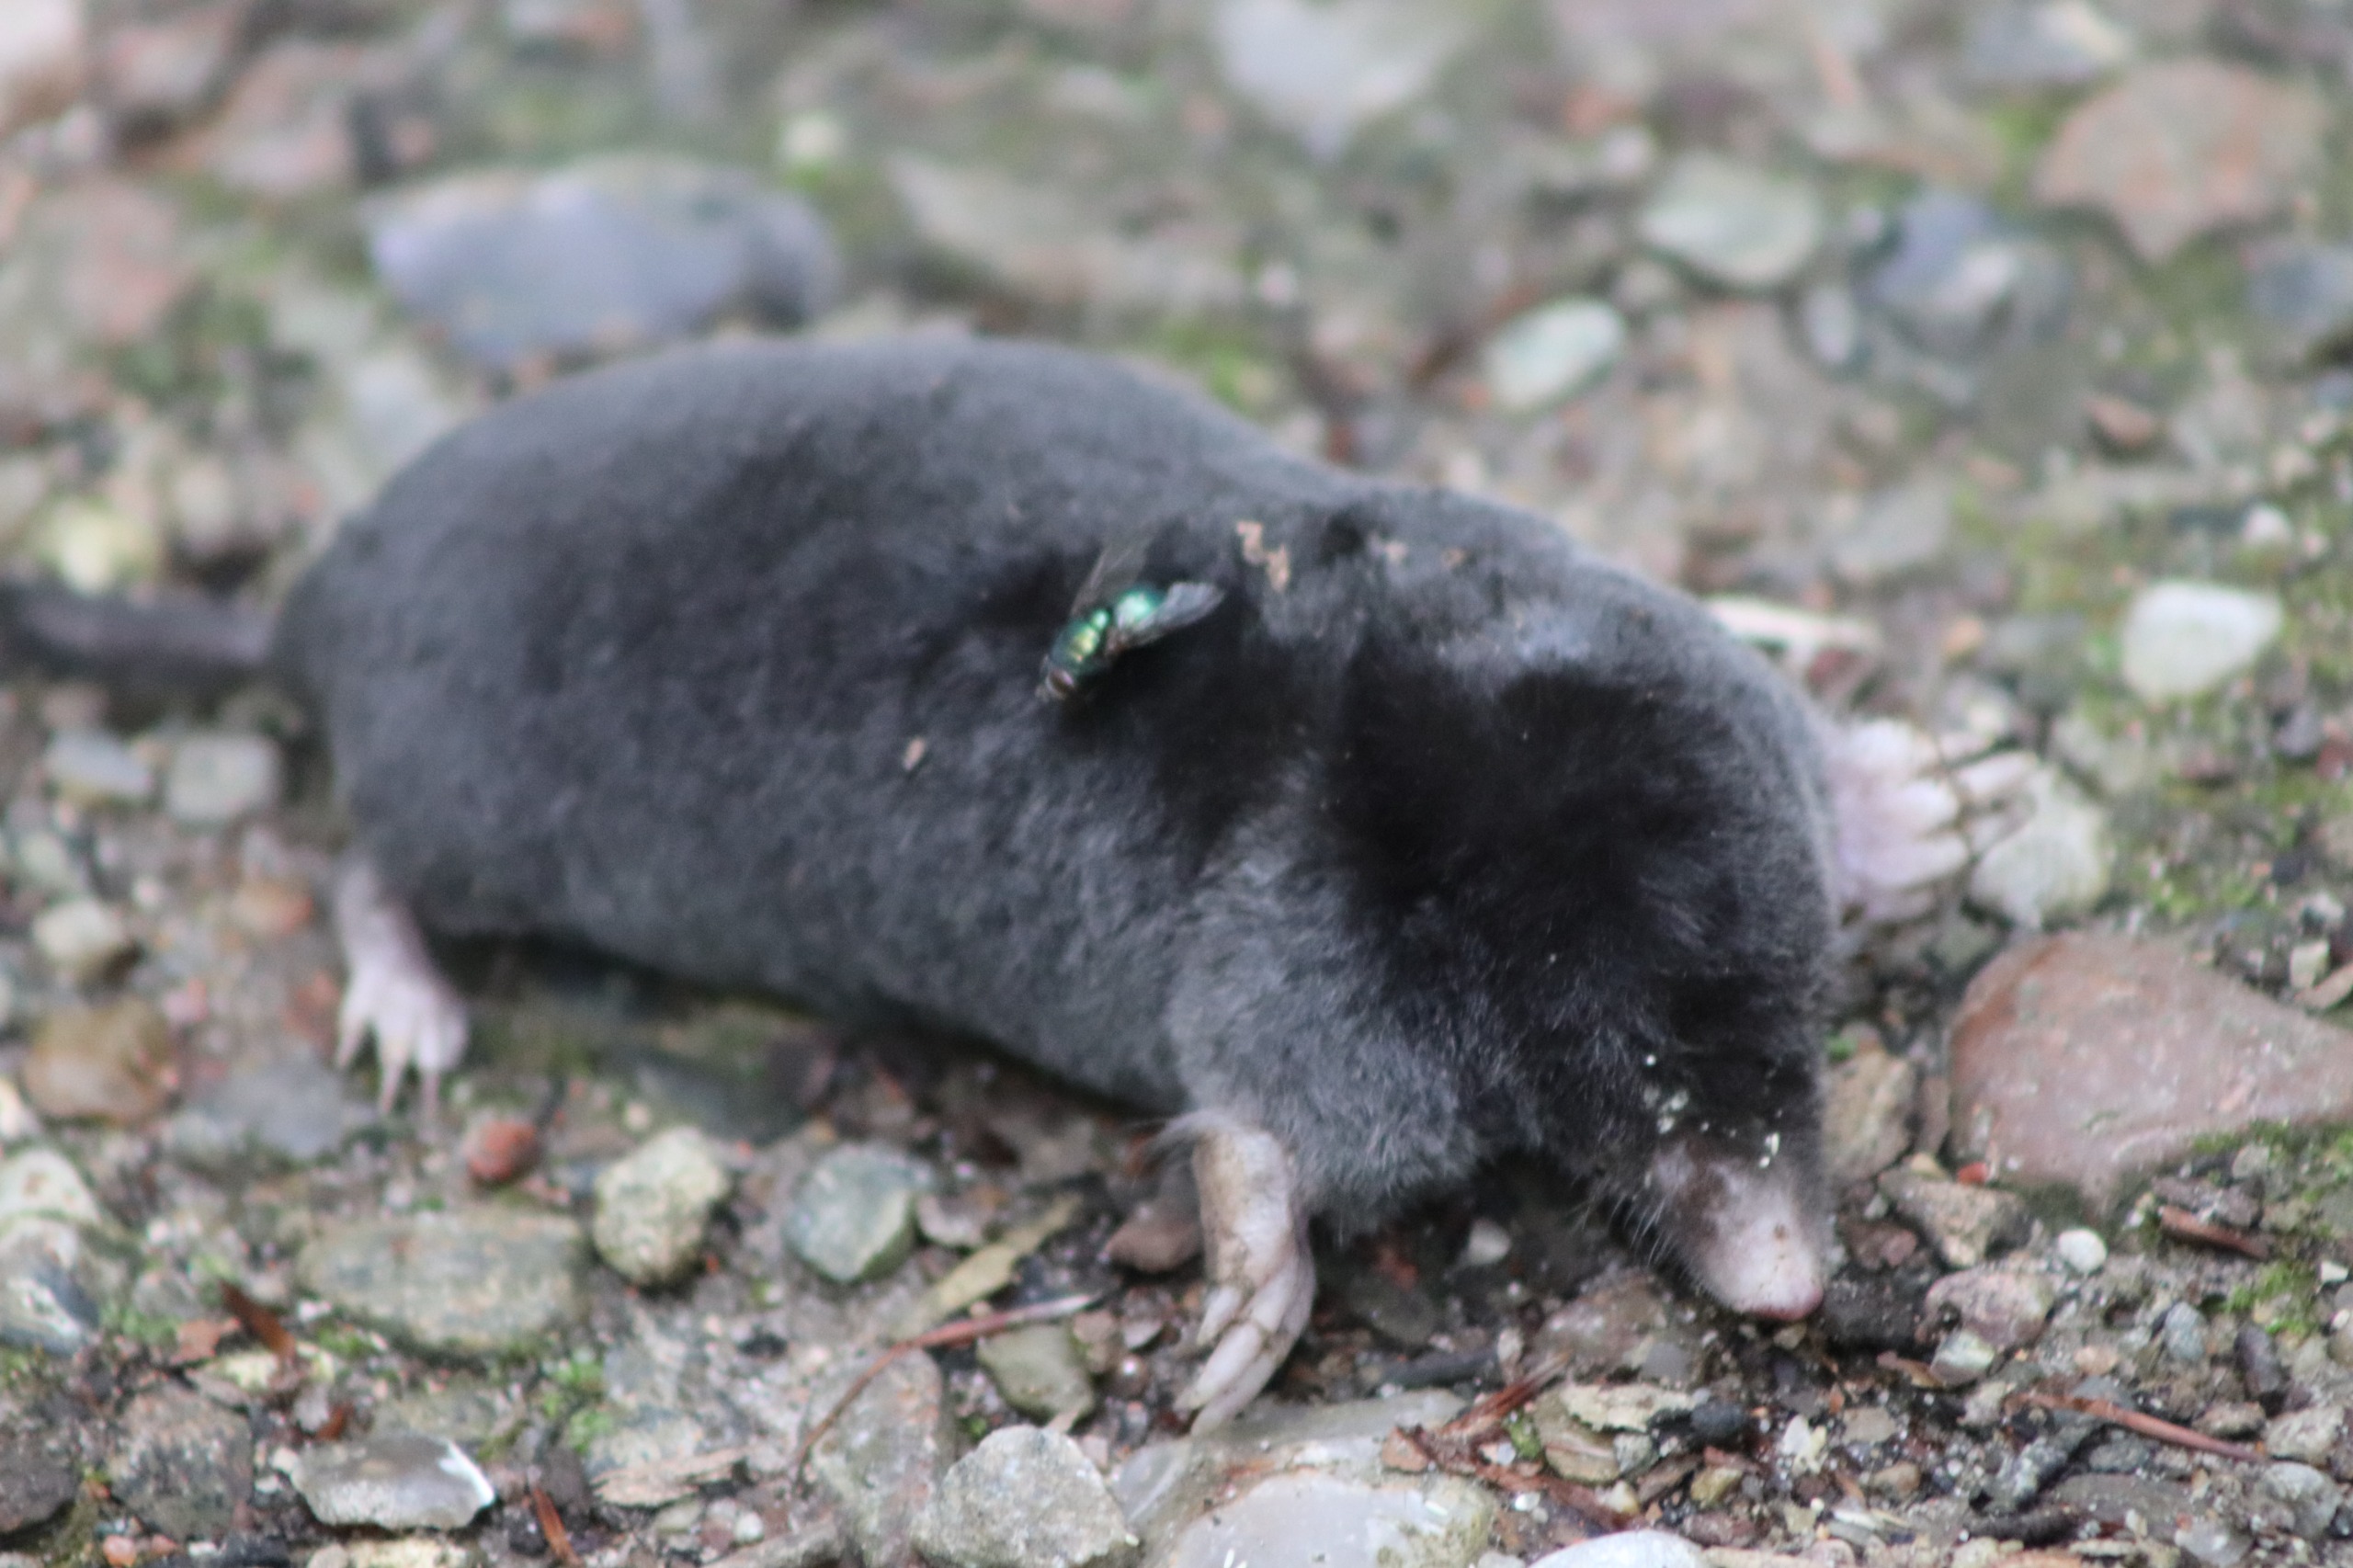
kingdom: Animalia
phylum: Chordata
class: Mammalia
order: Soricomorpha
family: Talpidae
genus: Talpa
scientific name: Talpa europaea
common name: Muldvarp
